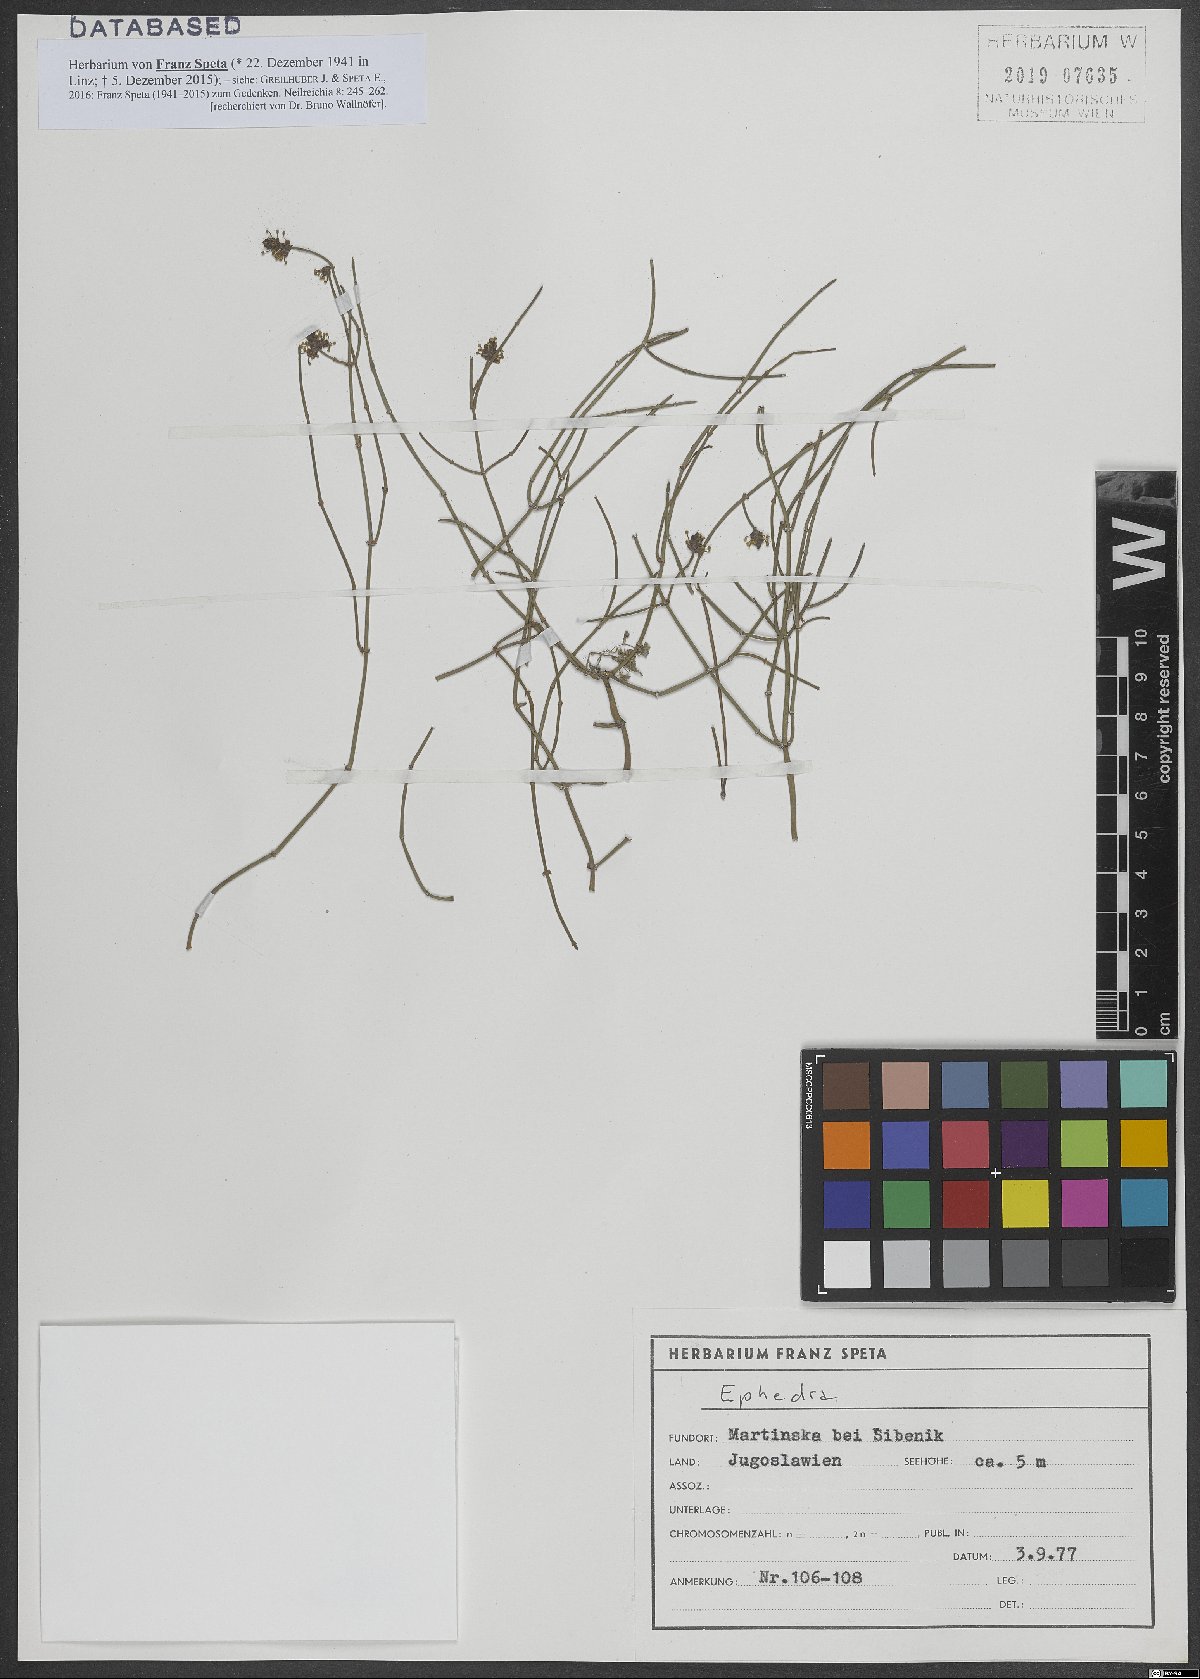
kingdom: Plantae
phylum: Tracheophyta
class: Gnetopsida
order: Ephedrales
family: Ephedraceae
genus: Ephedra
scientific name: Ephedra
